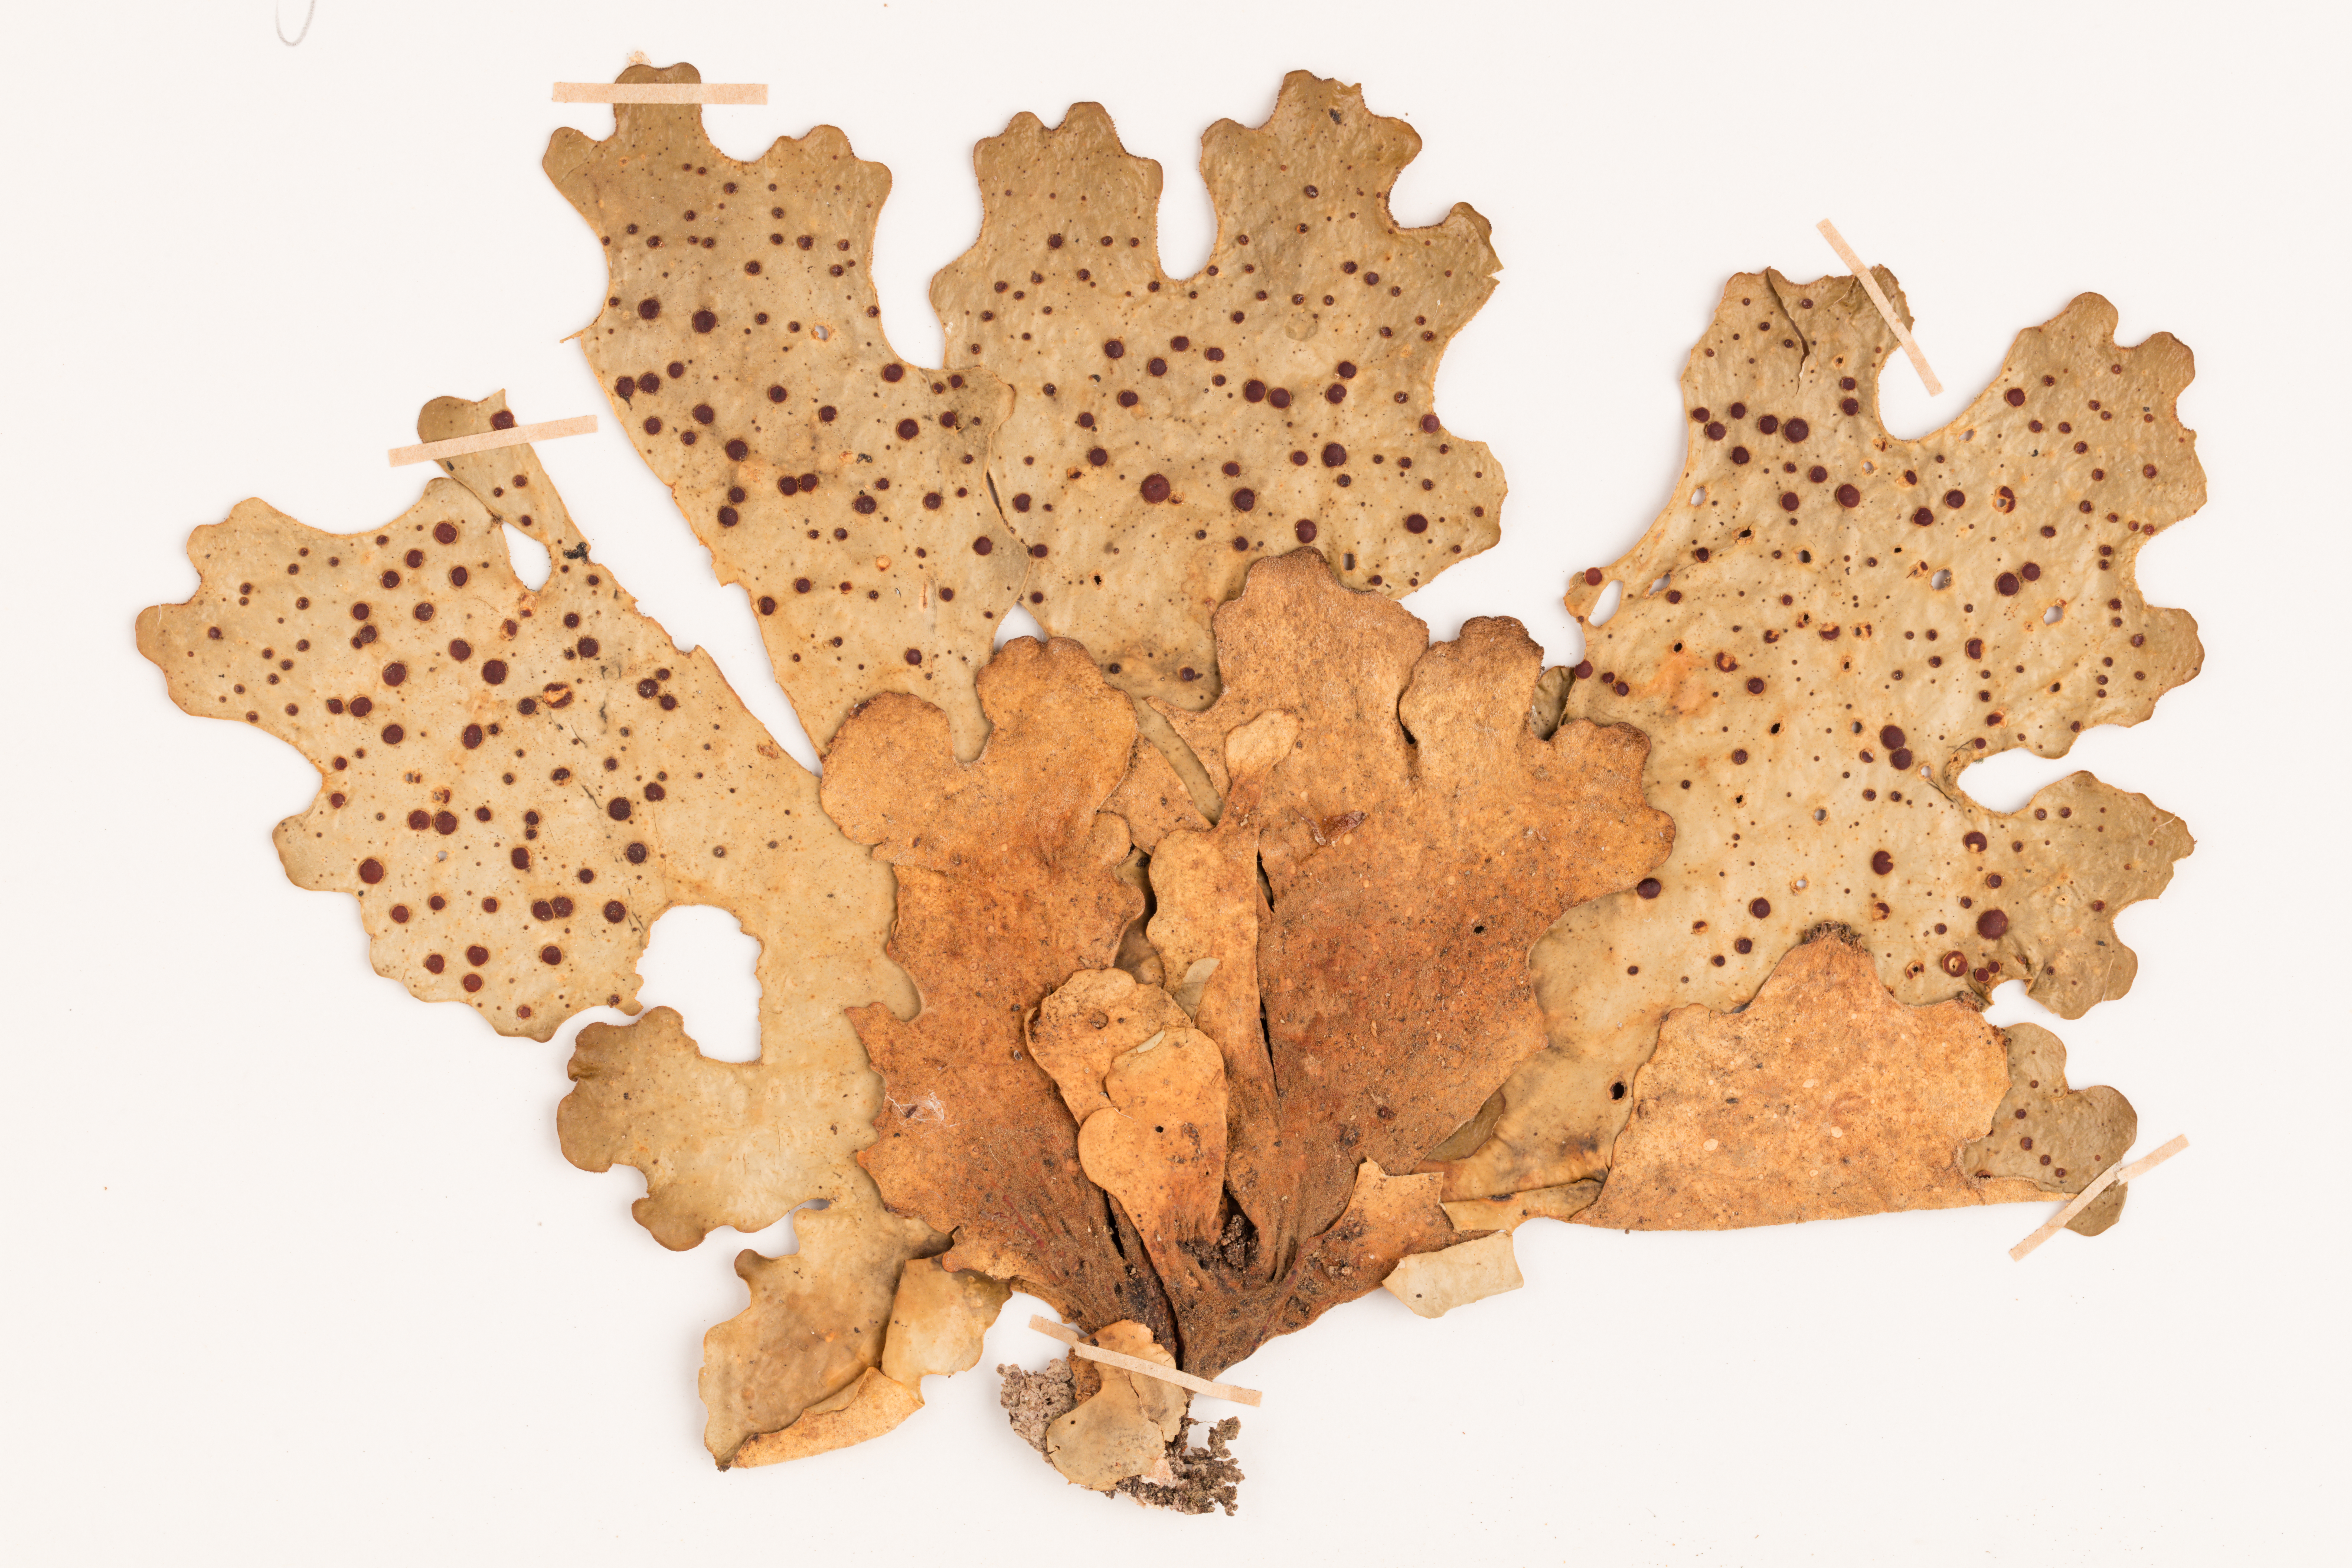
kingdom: Fungi
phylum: Ascomycota
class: Lecanoromycetes
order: Peltigerales
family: Lobariaceae
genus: Sticta
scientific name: Sticta latifrons
